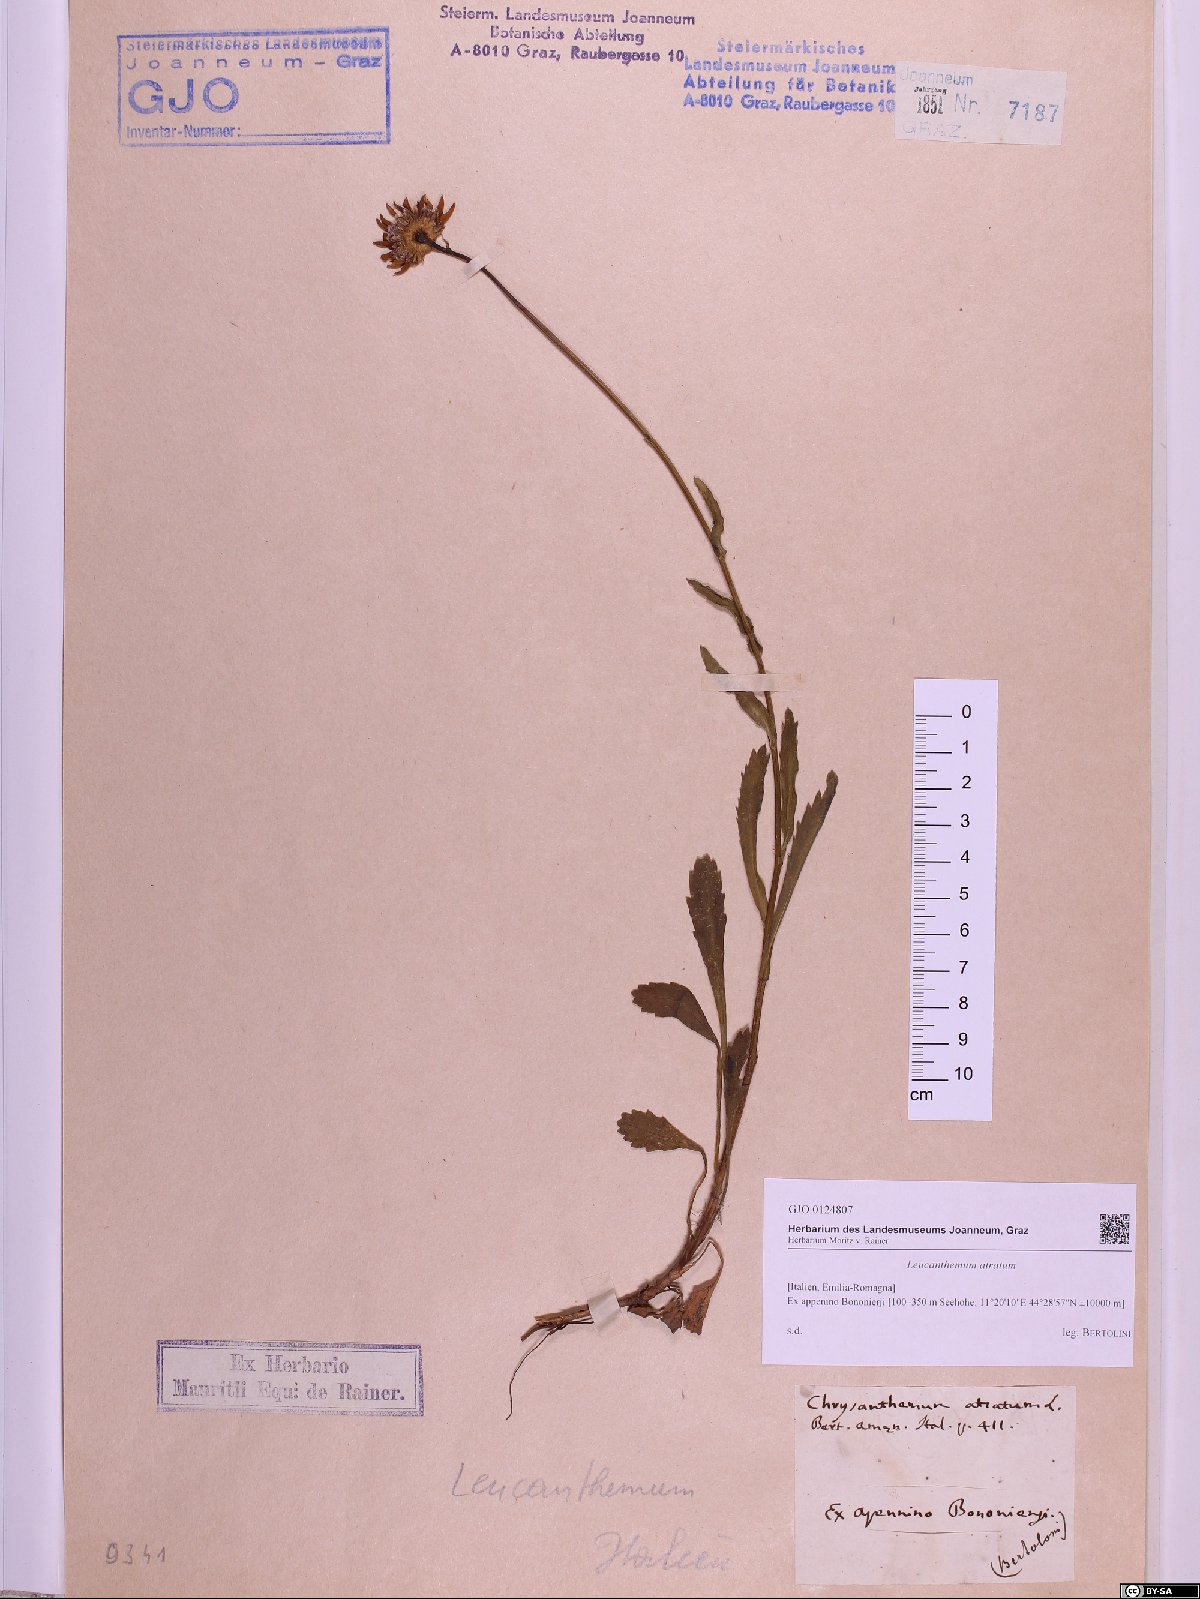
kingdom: Plantae
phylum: Tracheophyta
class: Magnoliopsida
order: Asterales
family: Asteraceae
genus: Leucanthemum
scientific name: Leucanthemum atratum
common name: Saw-leaved moon-daisy
